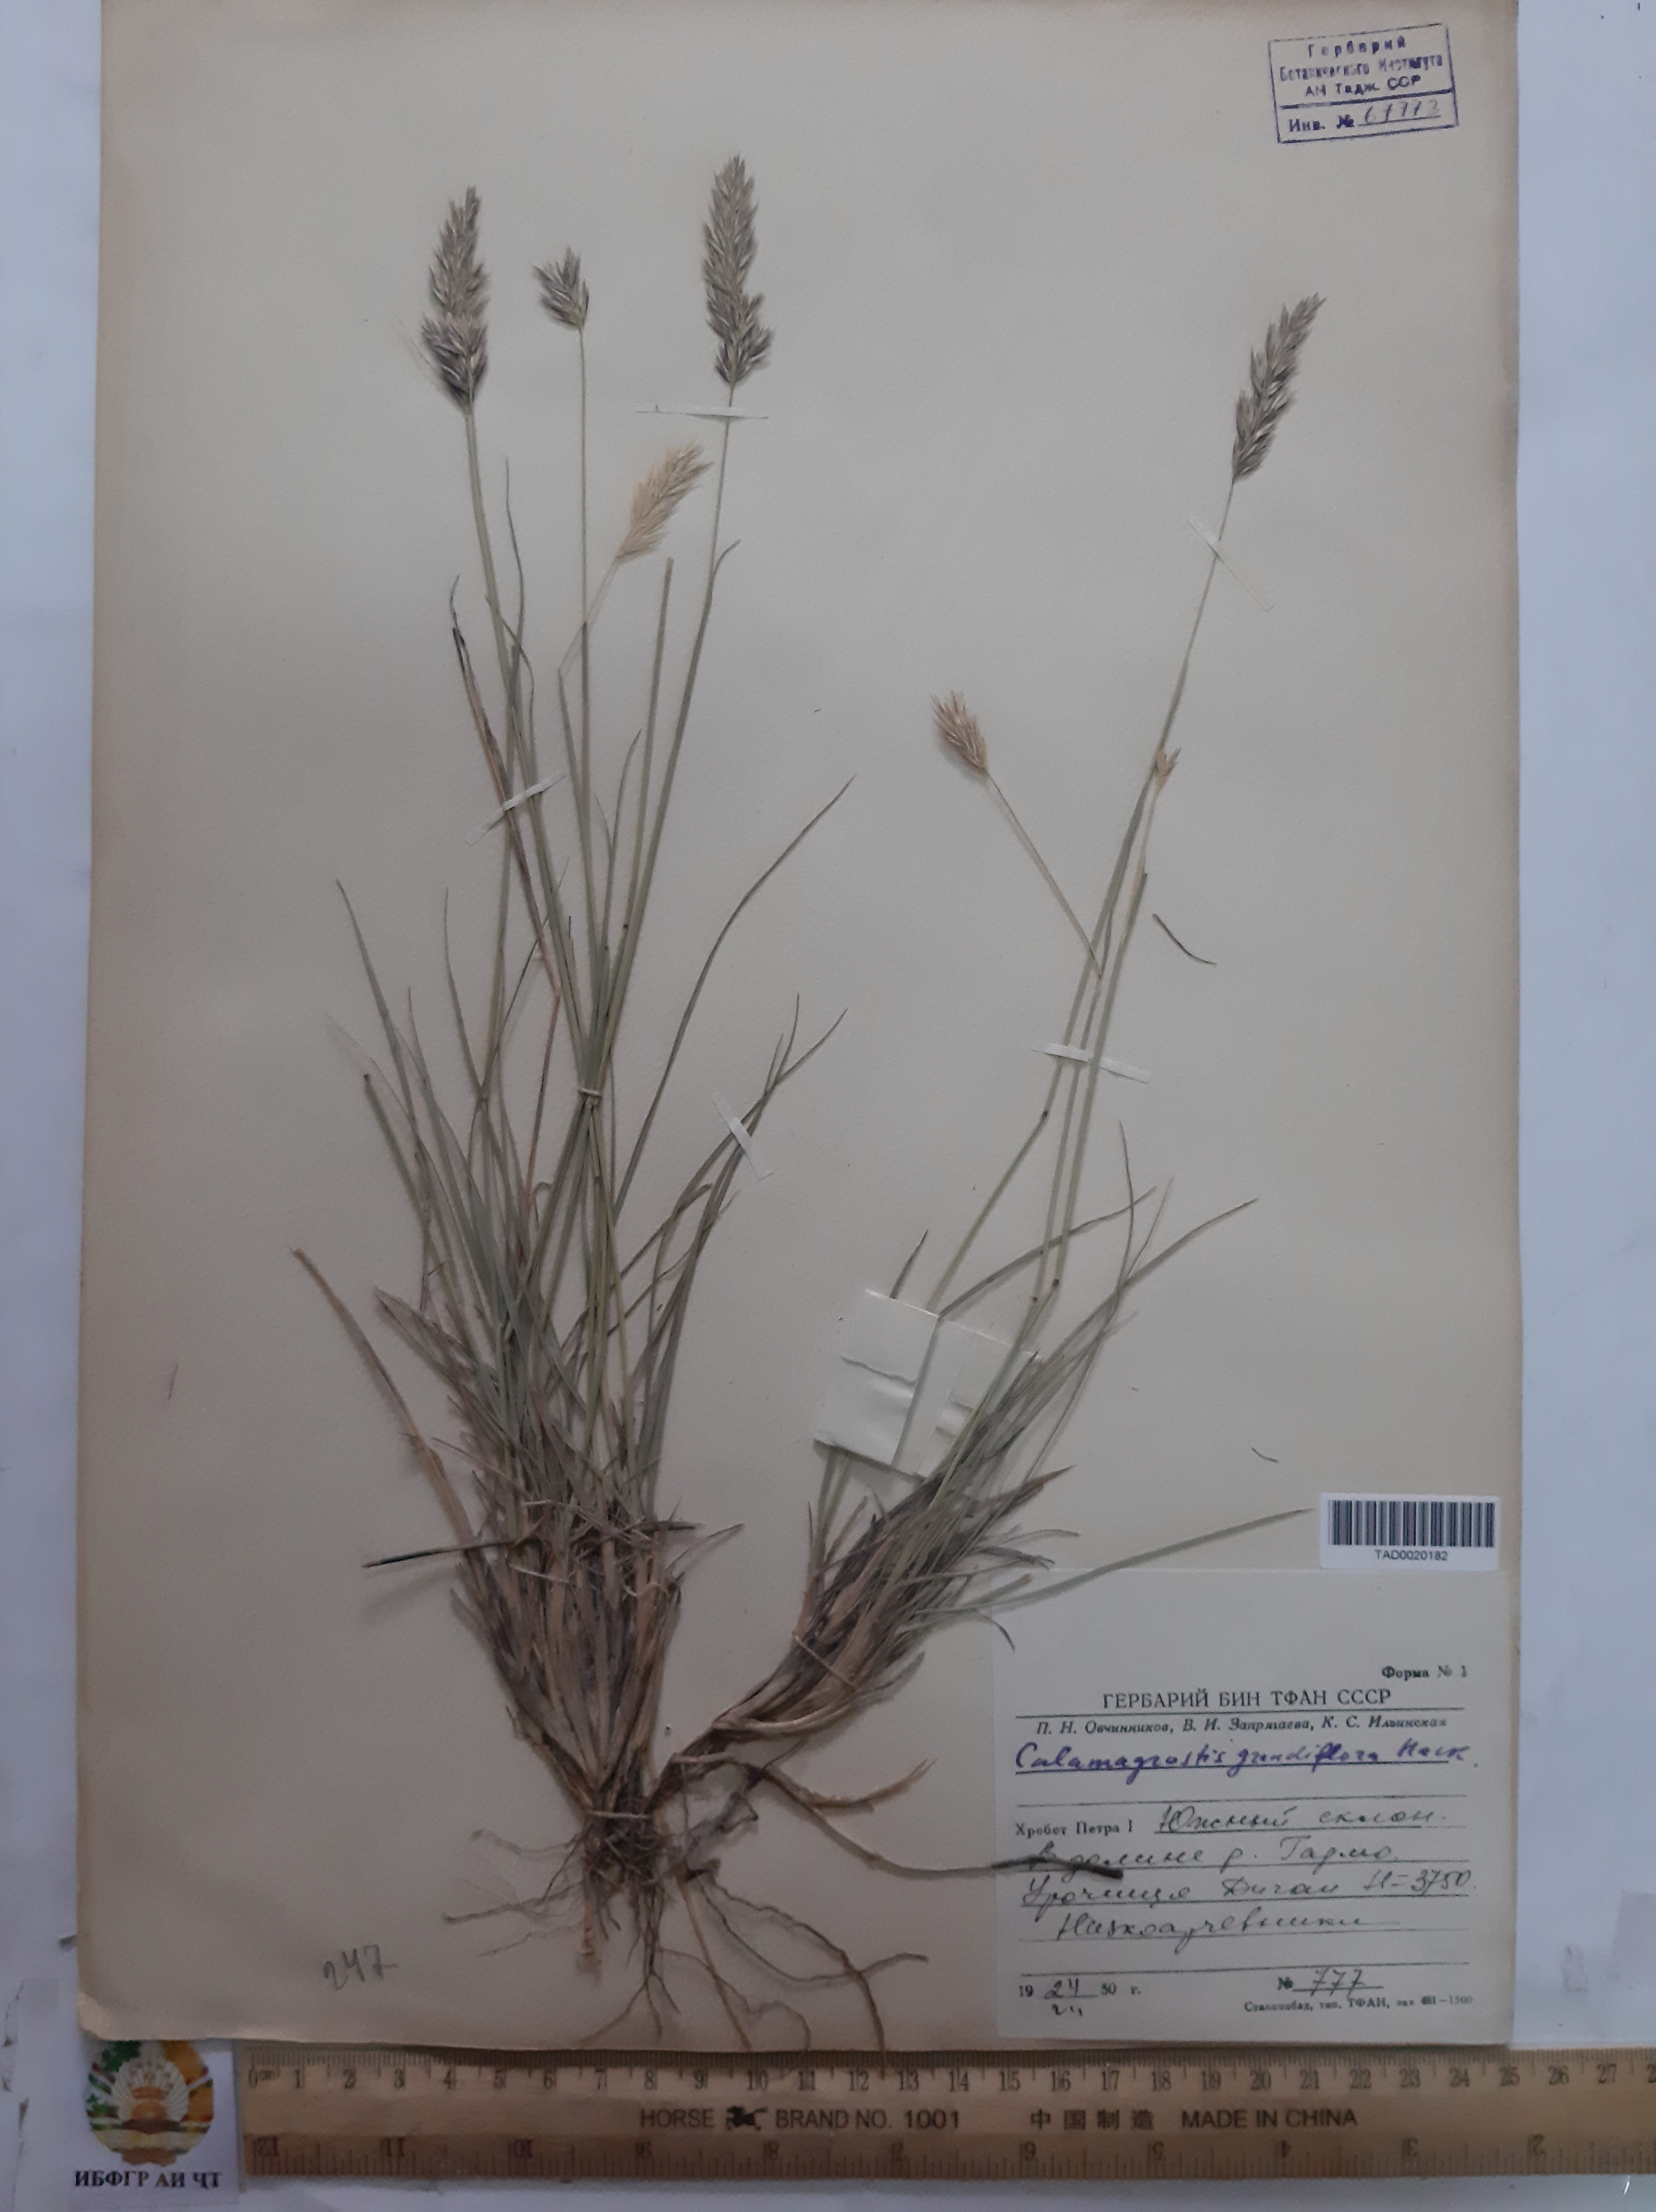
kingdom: Plantae
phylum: Tracheophyta
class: Liliopsida
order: Poales
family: Poaceae
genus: Calamagrostis
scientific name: Calamagrostis holciformis
